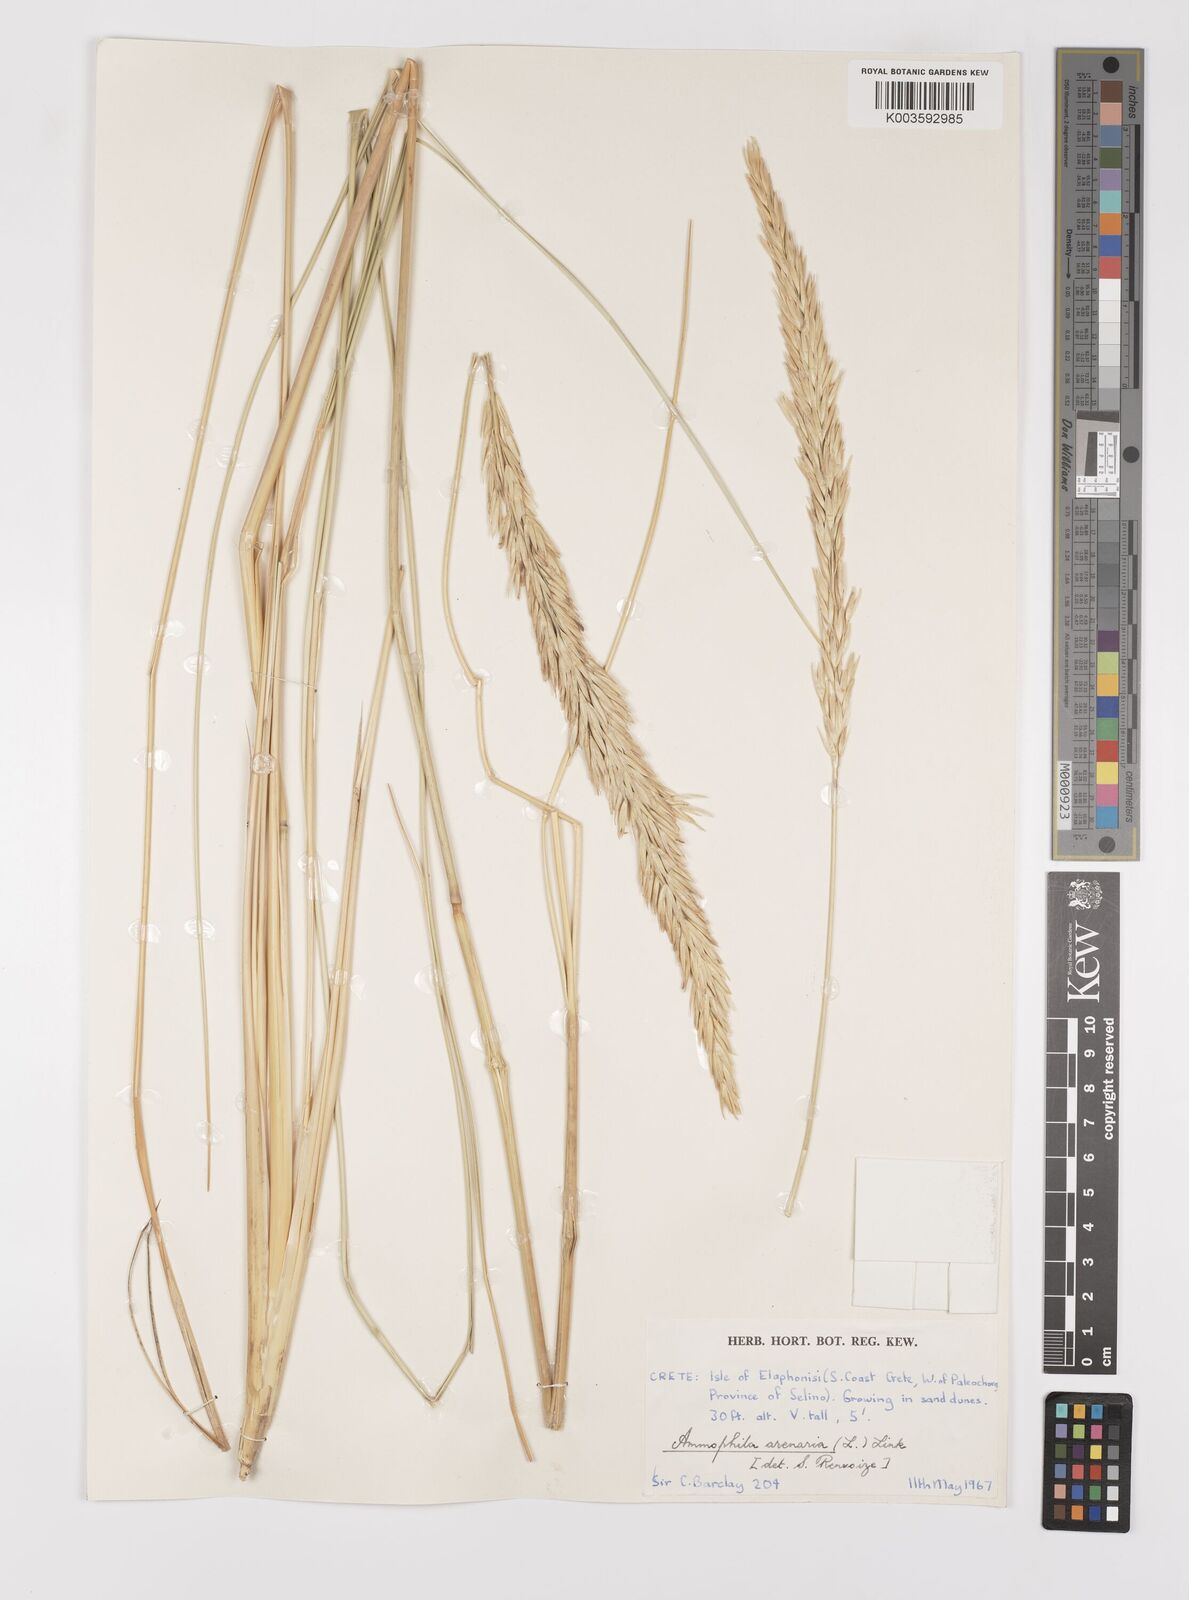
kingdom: Plantae
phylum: Tracheophyta
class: Liliopsida
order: Poales
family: Poaceae
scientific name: Poaceae
